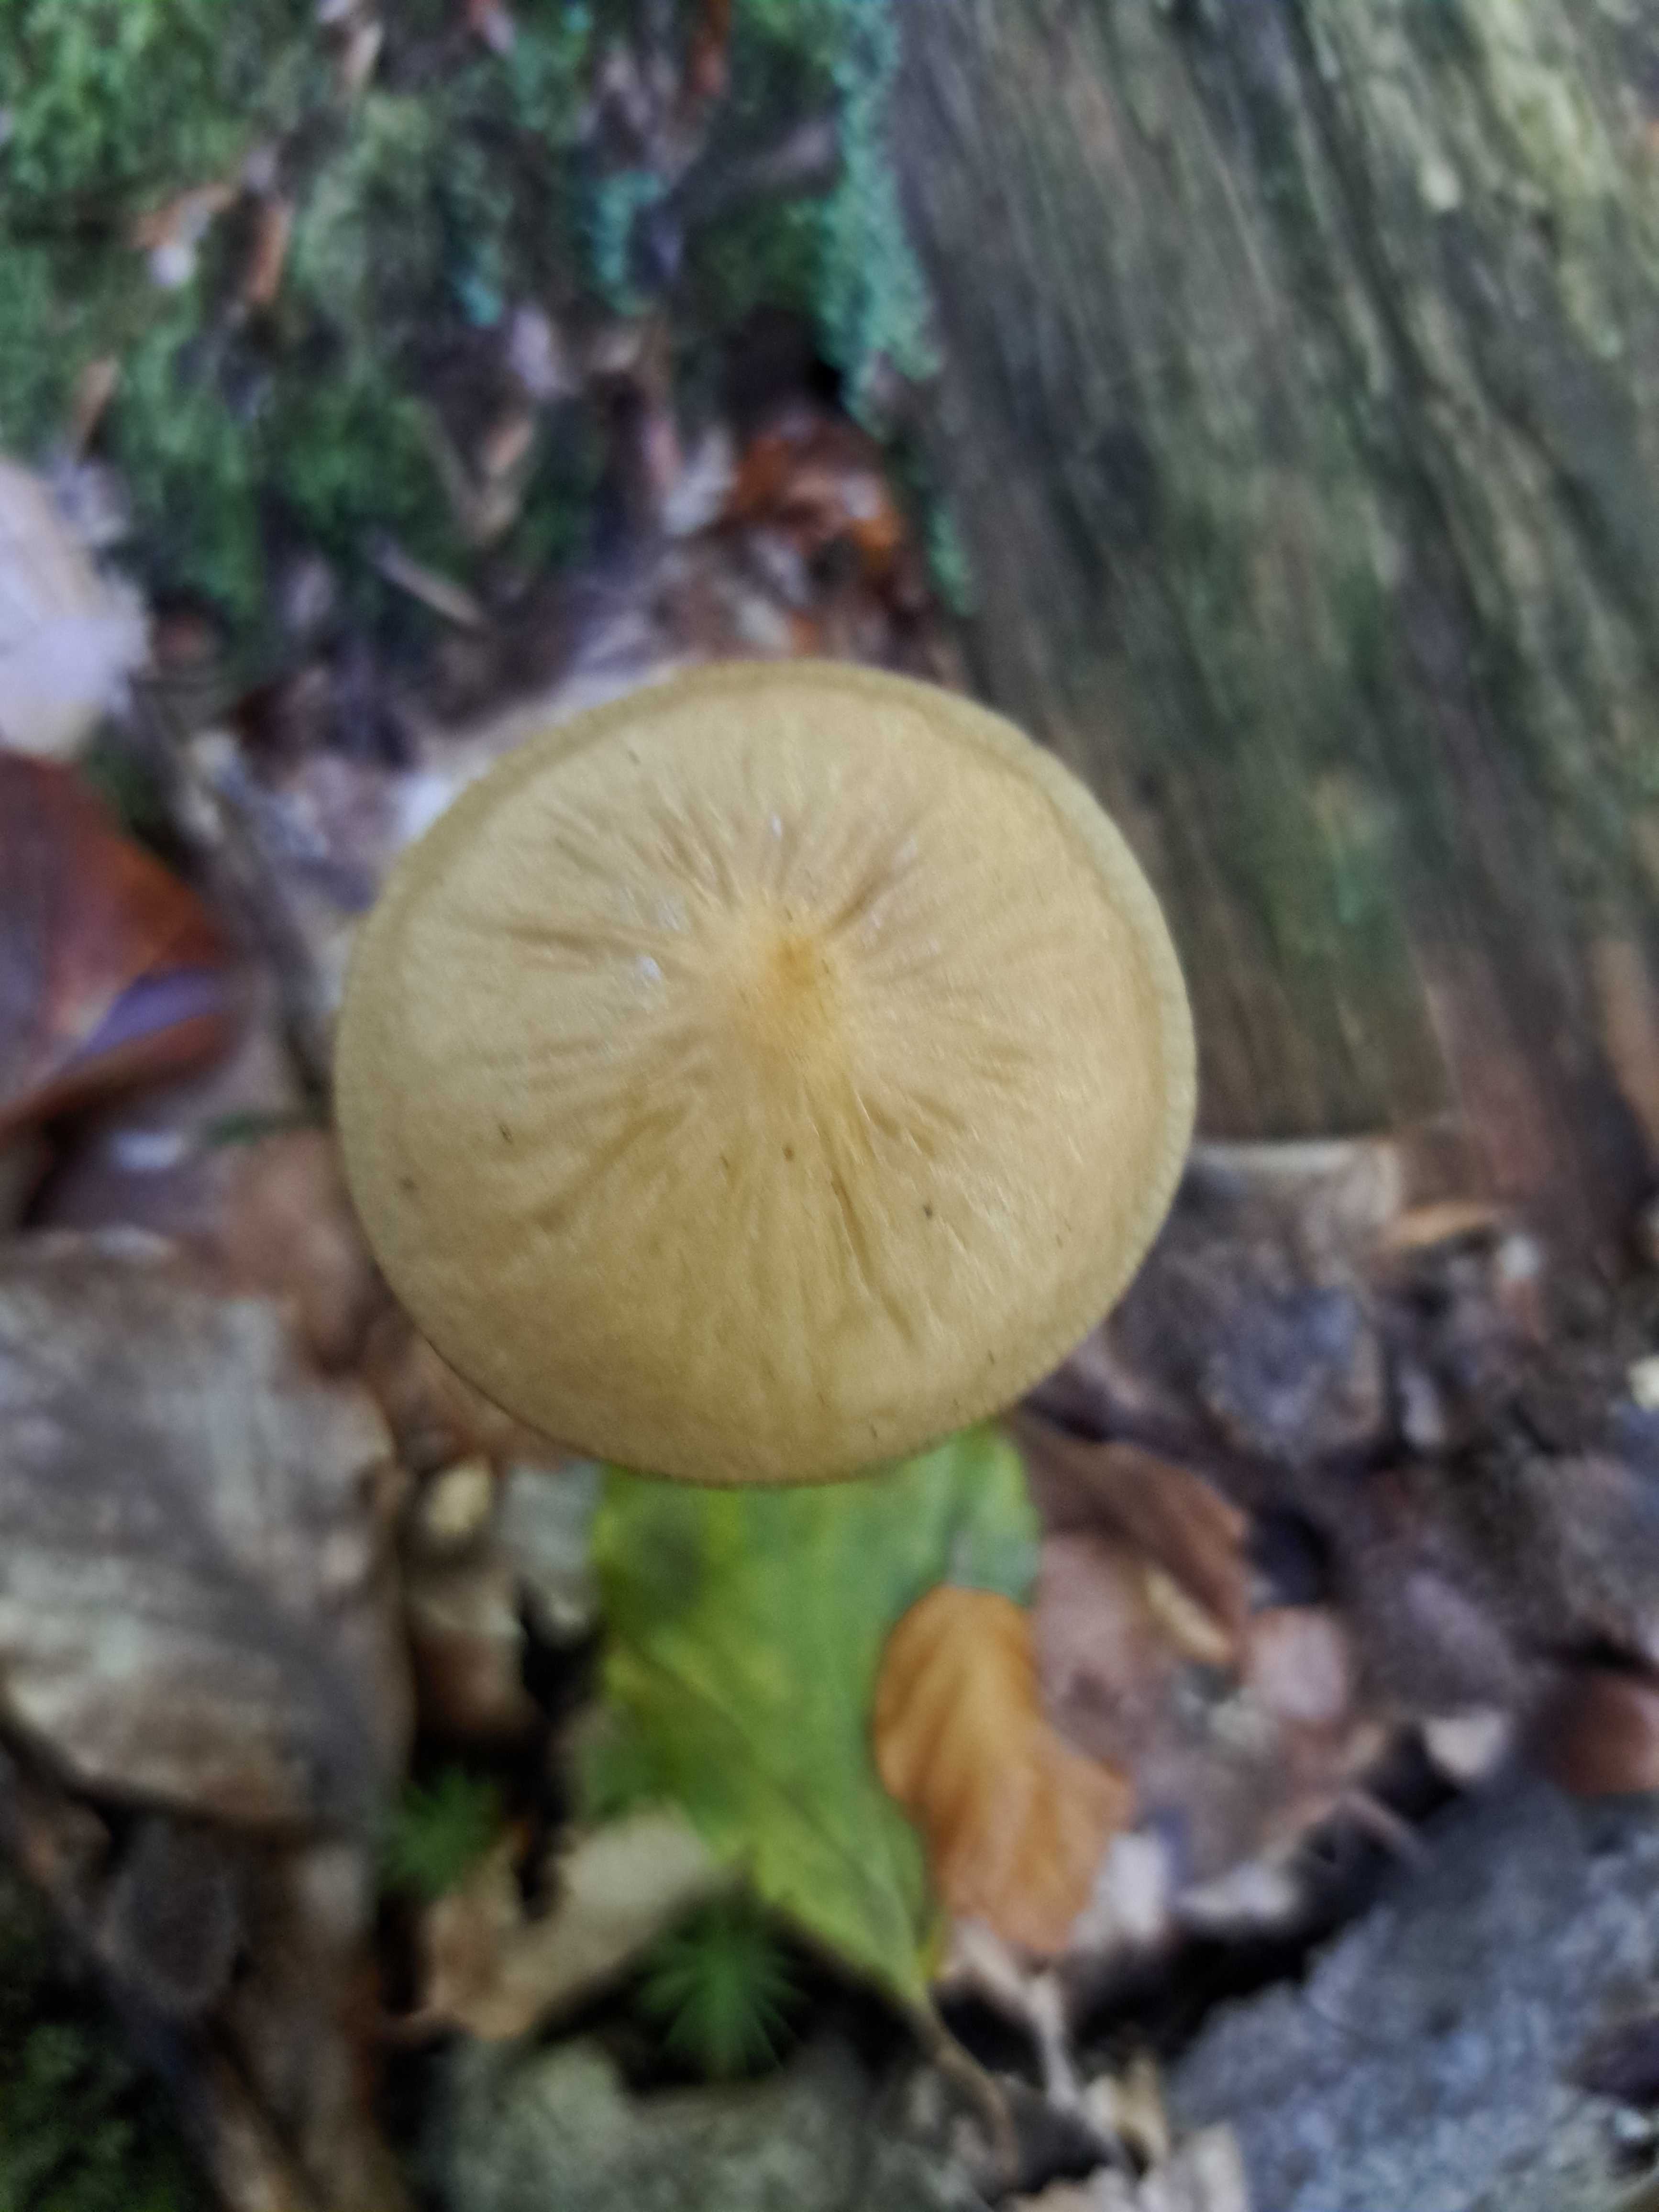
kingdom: Fungi
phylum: Basidiomycota
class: Agaricomycetes
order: Agaricales
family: Physalacriaceae
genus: Hymenopellis
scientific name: Hymenopellis radicata
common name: almindelig pælerodshat
